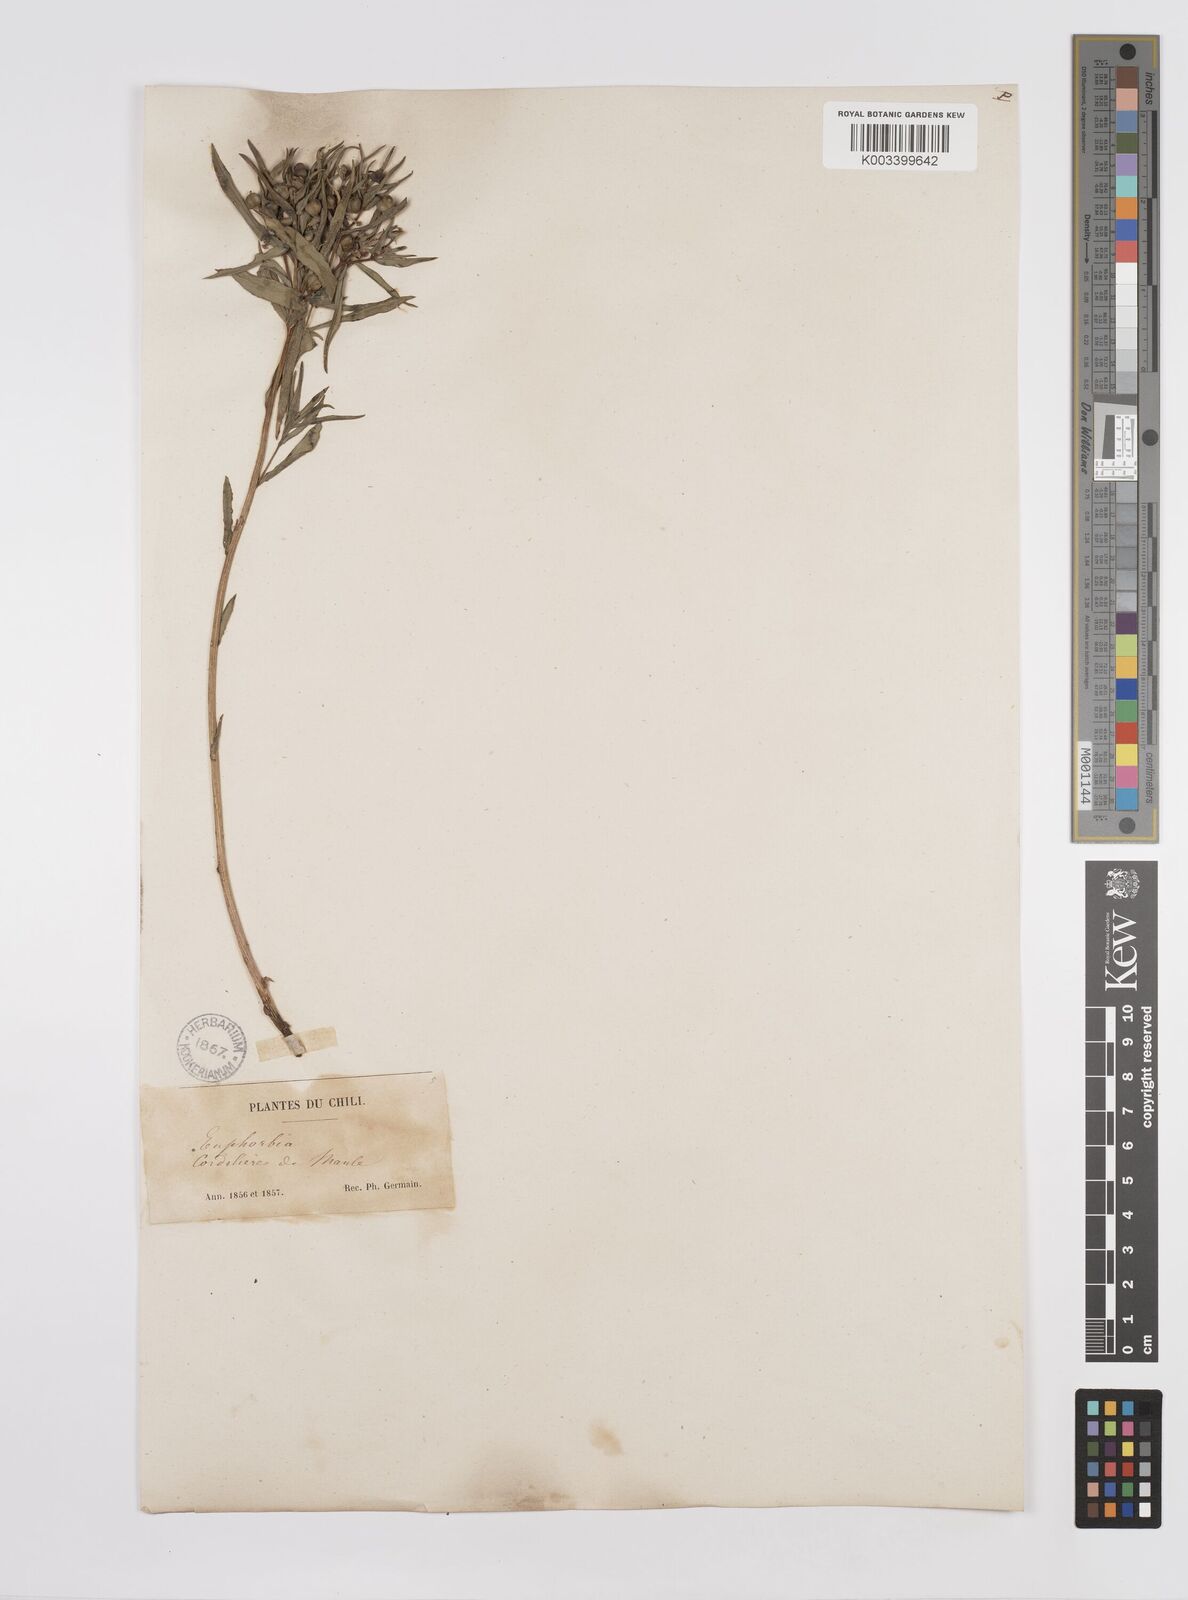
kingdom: Plantae
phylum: Tracheophyta
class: Magnoliopsida
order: Malpighiales
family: Euphorbiaceae
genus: Euphorbia
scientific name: Euphorbia portulacoides
